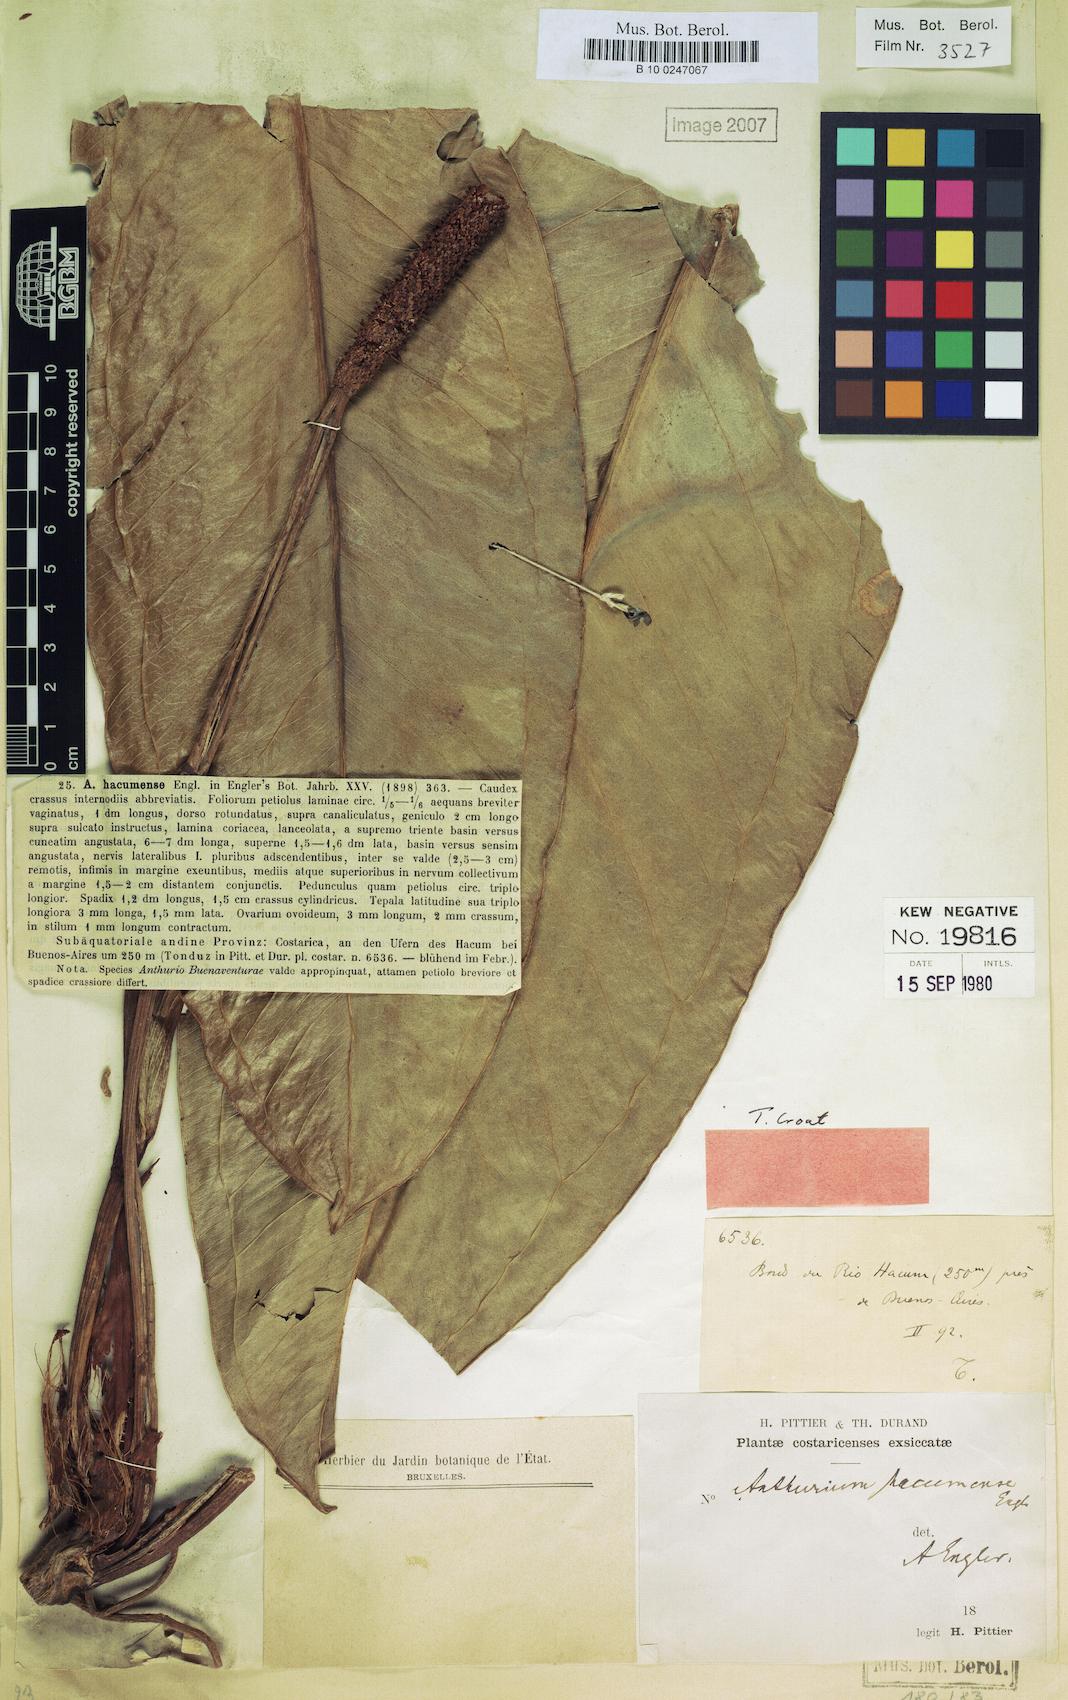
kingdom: Plantae
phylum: Tracheophyta
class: Liliopsida
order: Alismatales
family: Araceae
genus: Anthurium
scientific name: Anthurium hacumense
